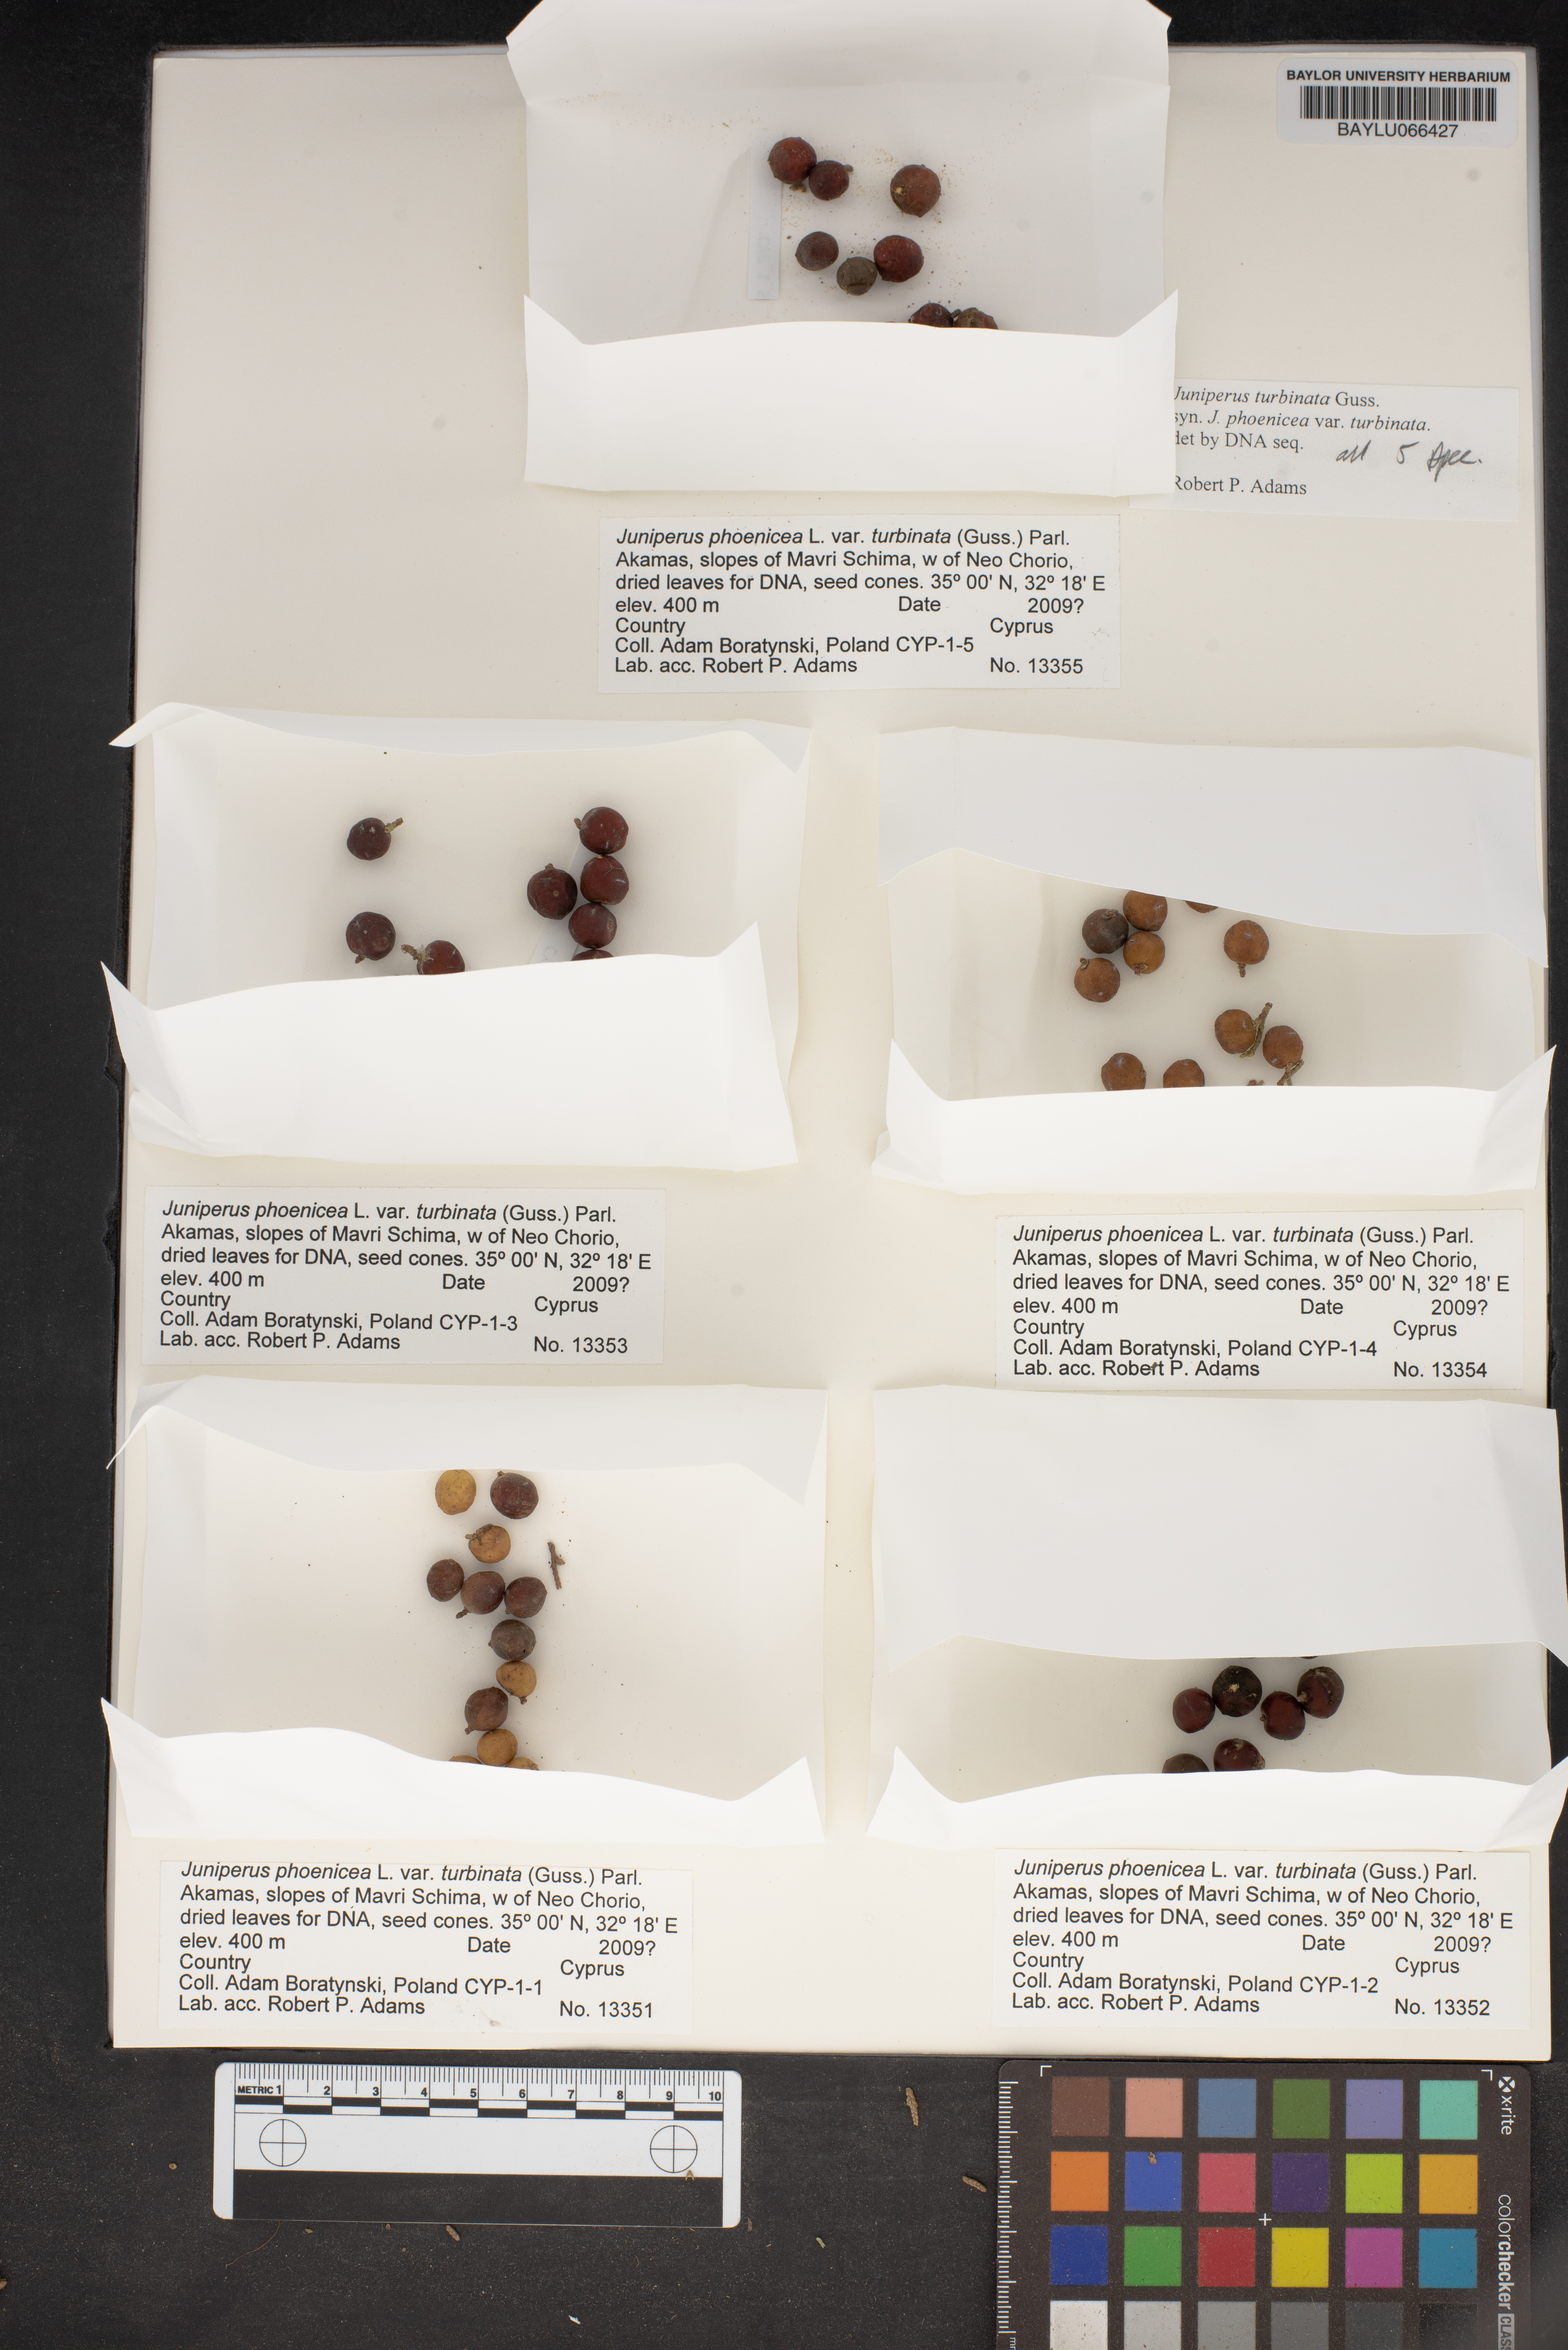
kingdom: Plantae
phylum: Tracheophyta
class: Pinopsida
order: Pinales
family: Cupressaceae
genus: Juniperus
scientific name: Juniperus phoenicea
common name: Phoenician juniper
